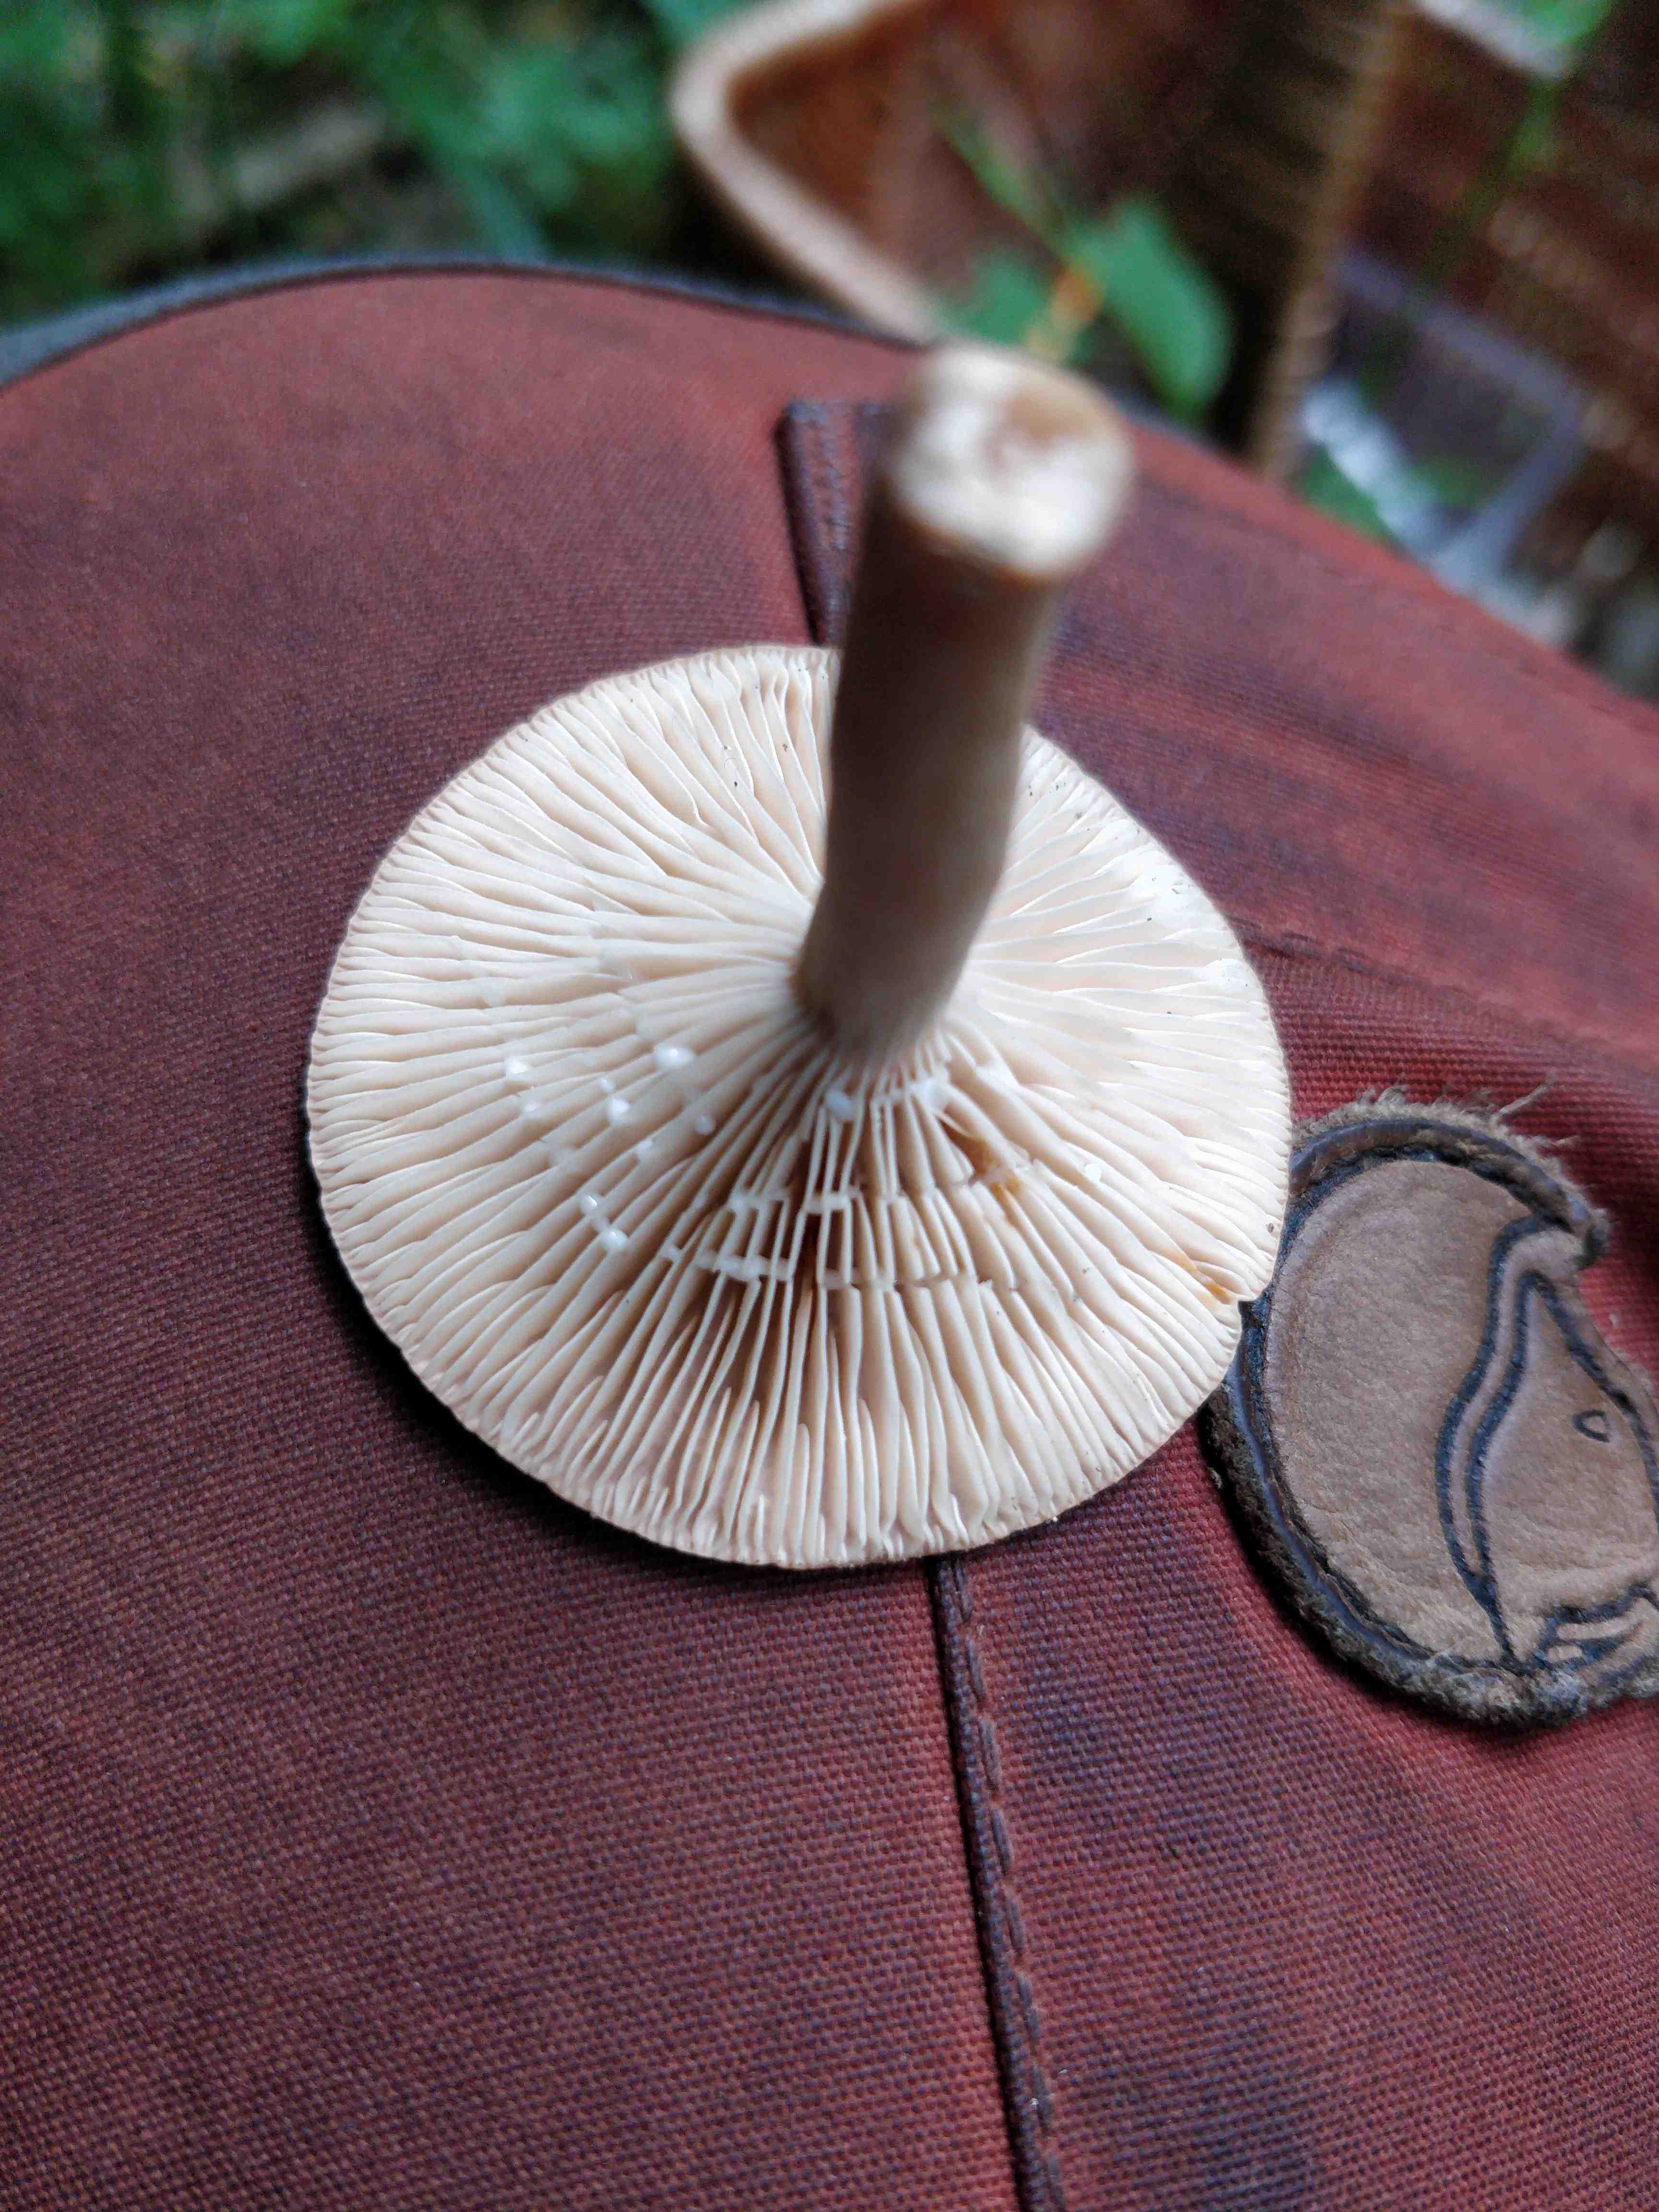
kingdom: Fungi
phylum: Basidiomycota
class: Agaricomycetes
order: Russulales
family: Russulaceae
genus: Lactarius
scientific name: Lactarius subdulcis
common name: sødlig mælkehat
